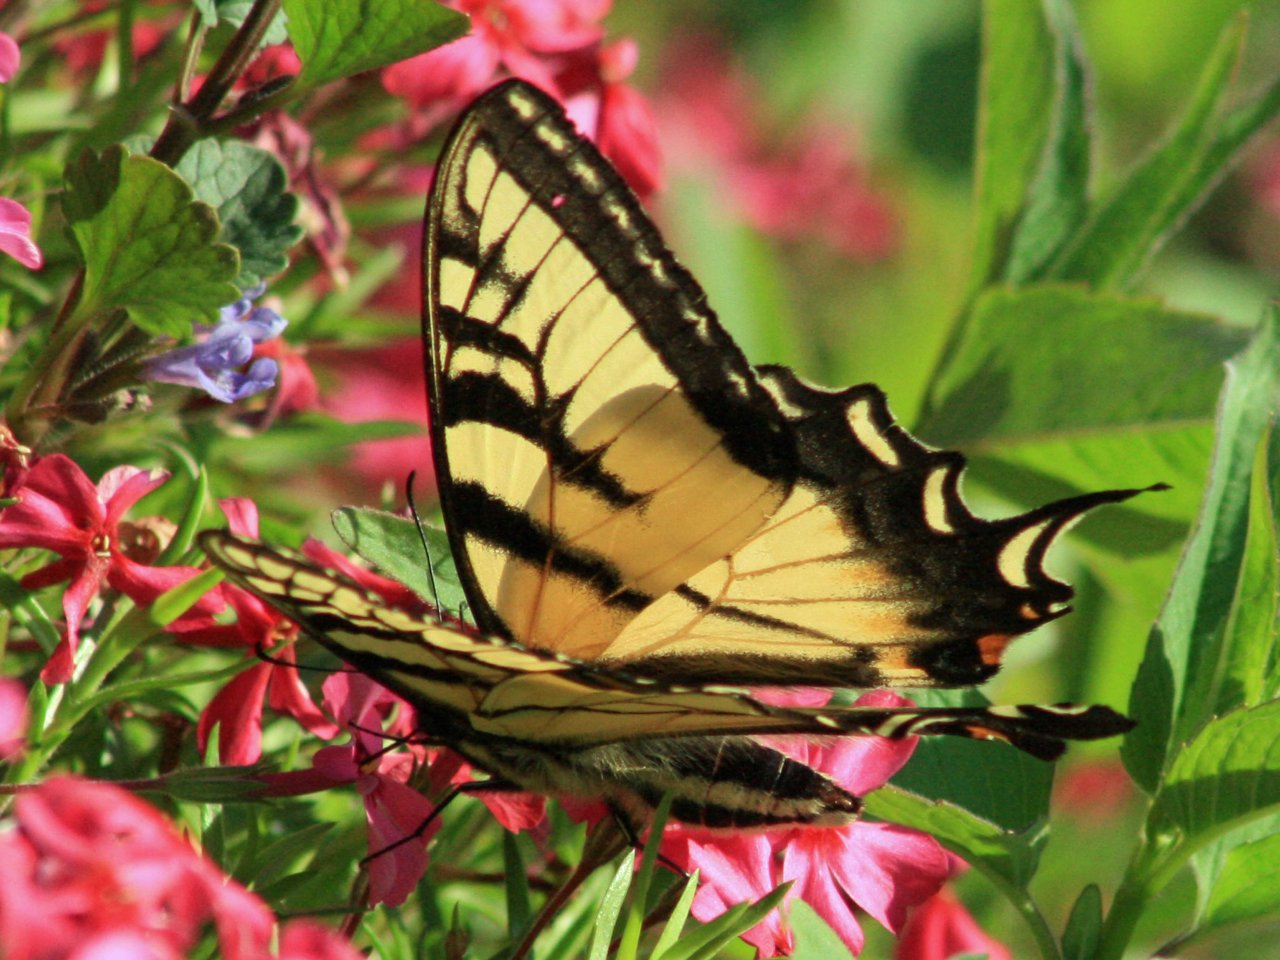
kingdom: Animalia
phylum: Arthropoda
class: Insecta
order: Lepidoptera
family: Papilionidae
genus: Pterourus
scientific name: Pterourus glaucus
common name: Eastern Tiger Swallowtail
